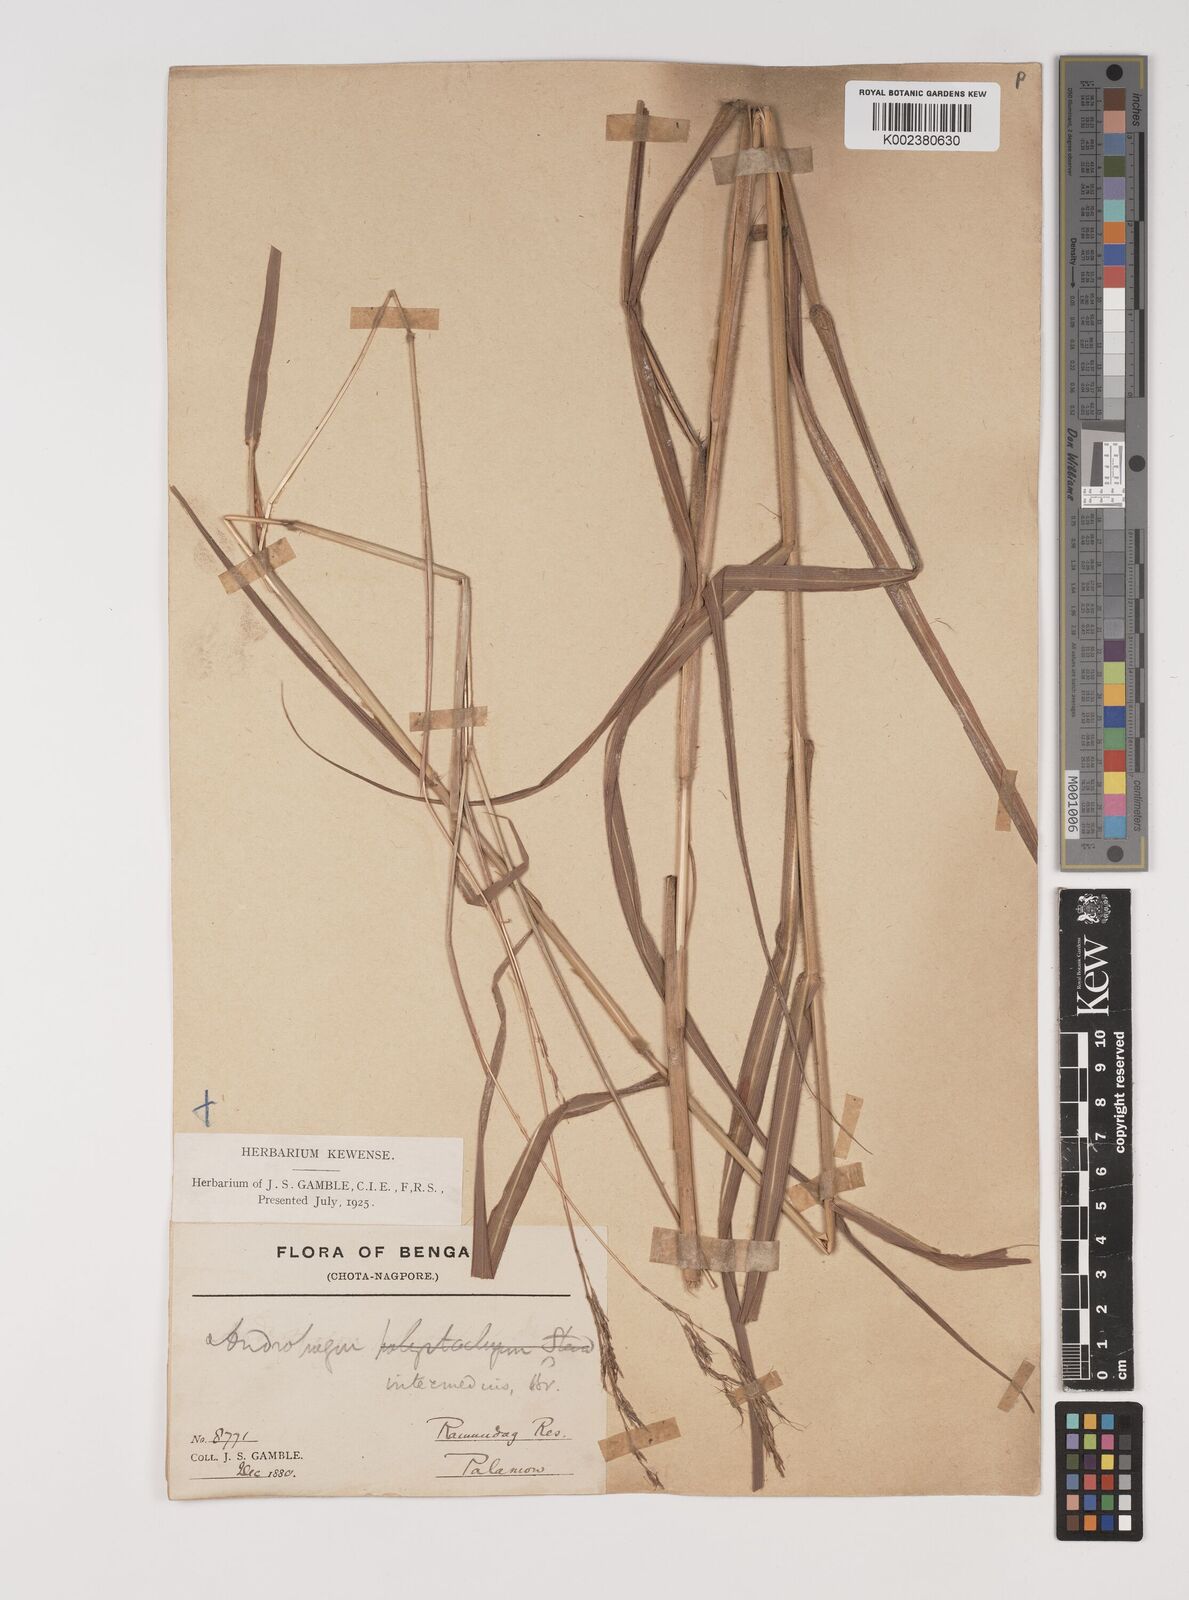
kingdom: Plantae
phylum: Tracheophyta
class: Liliopsida
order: Poales
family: Poaceae
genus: Bothriochloa
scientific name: Bothriochloa bladhii
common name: Caucasian bluestem
